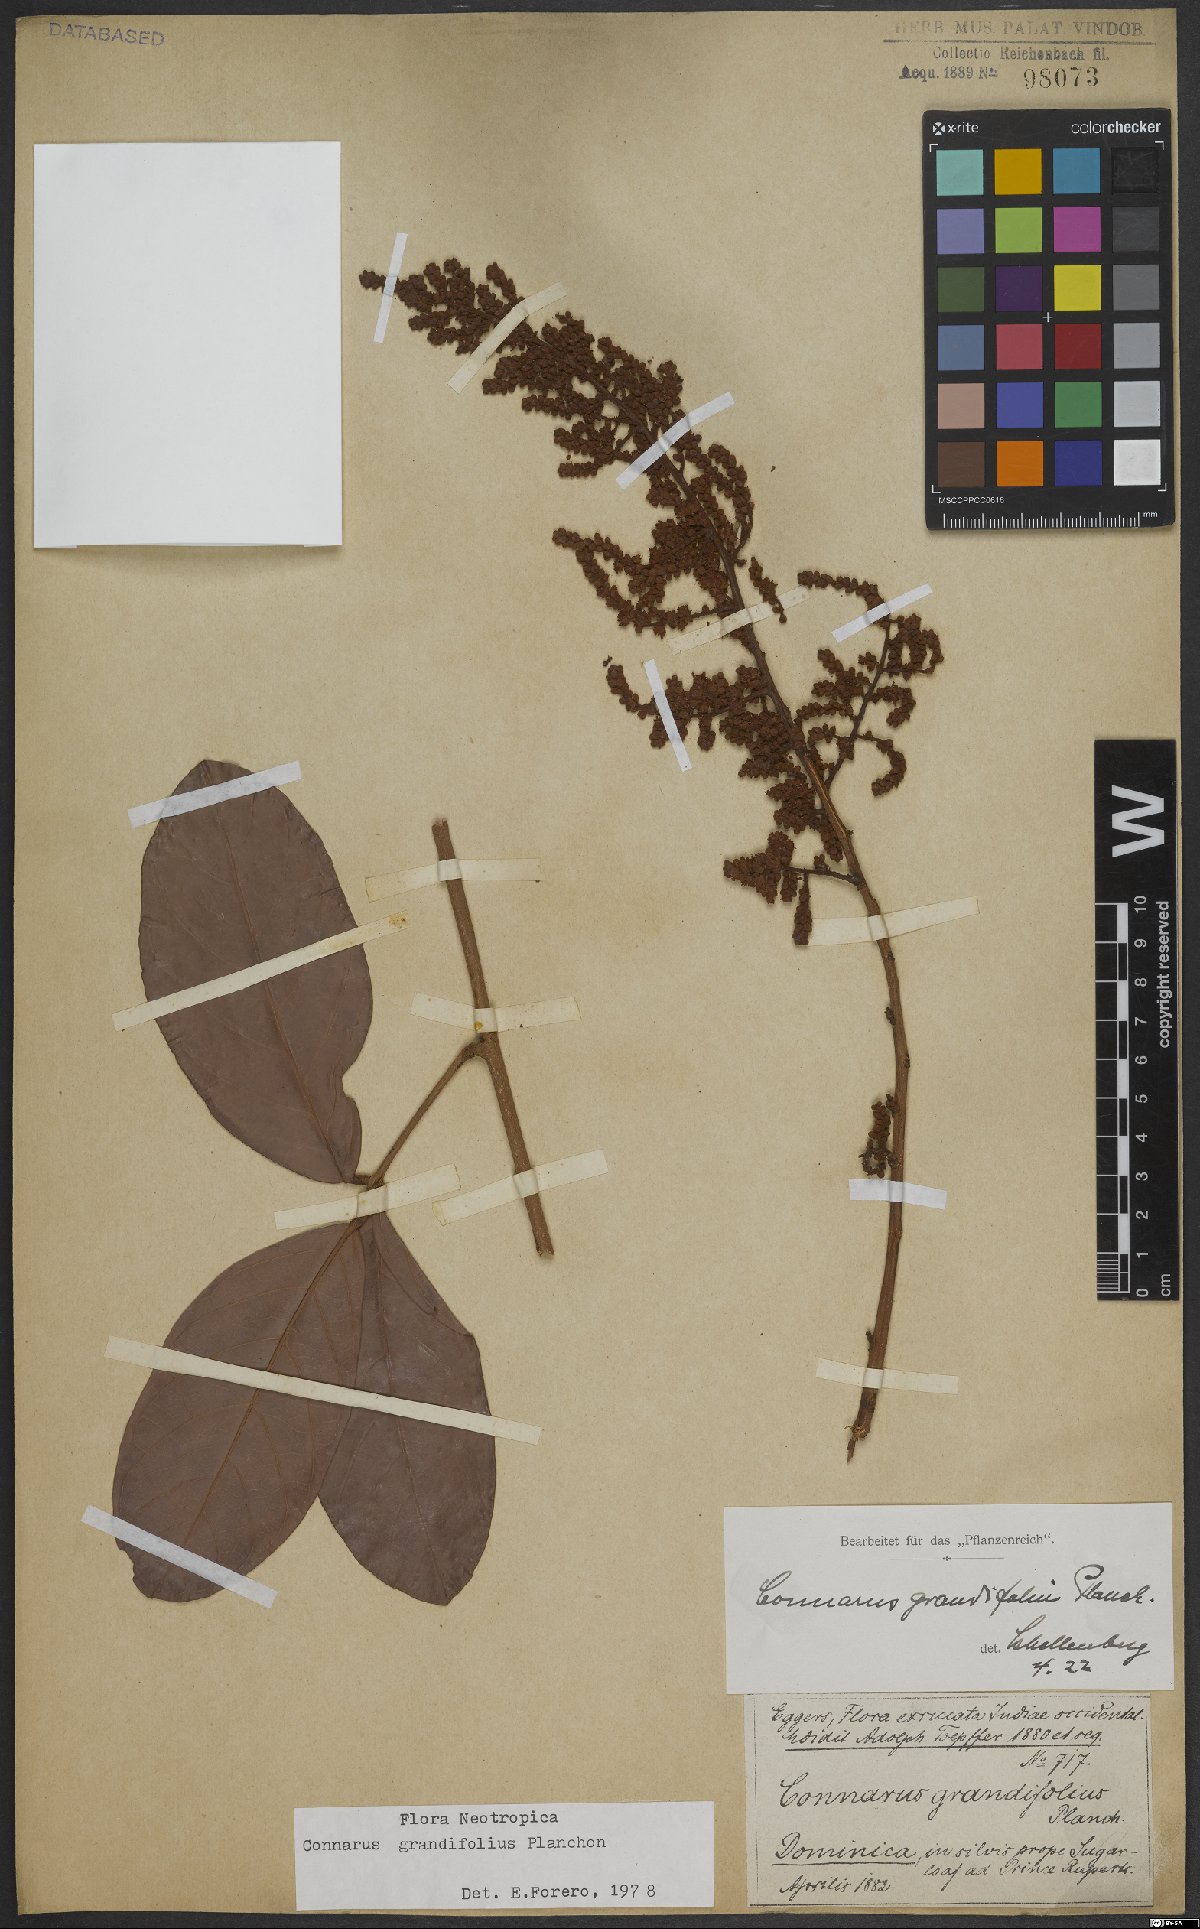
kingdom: Plantae
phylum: Tracheophyta
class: Magnoliopsida
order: Oxalidales
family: Connaraceae
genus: Connarus
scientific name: Connarus grandifolius
